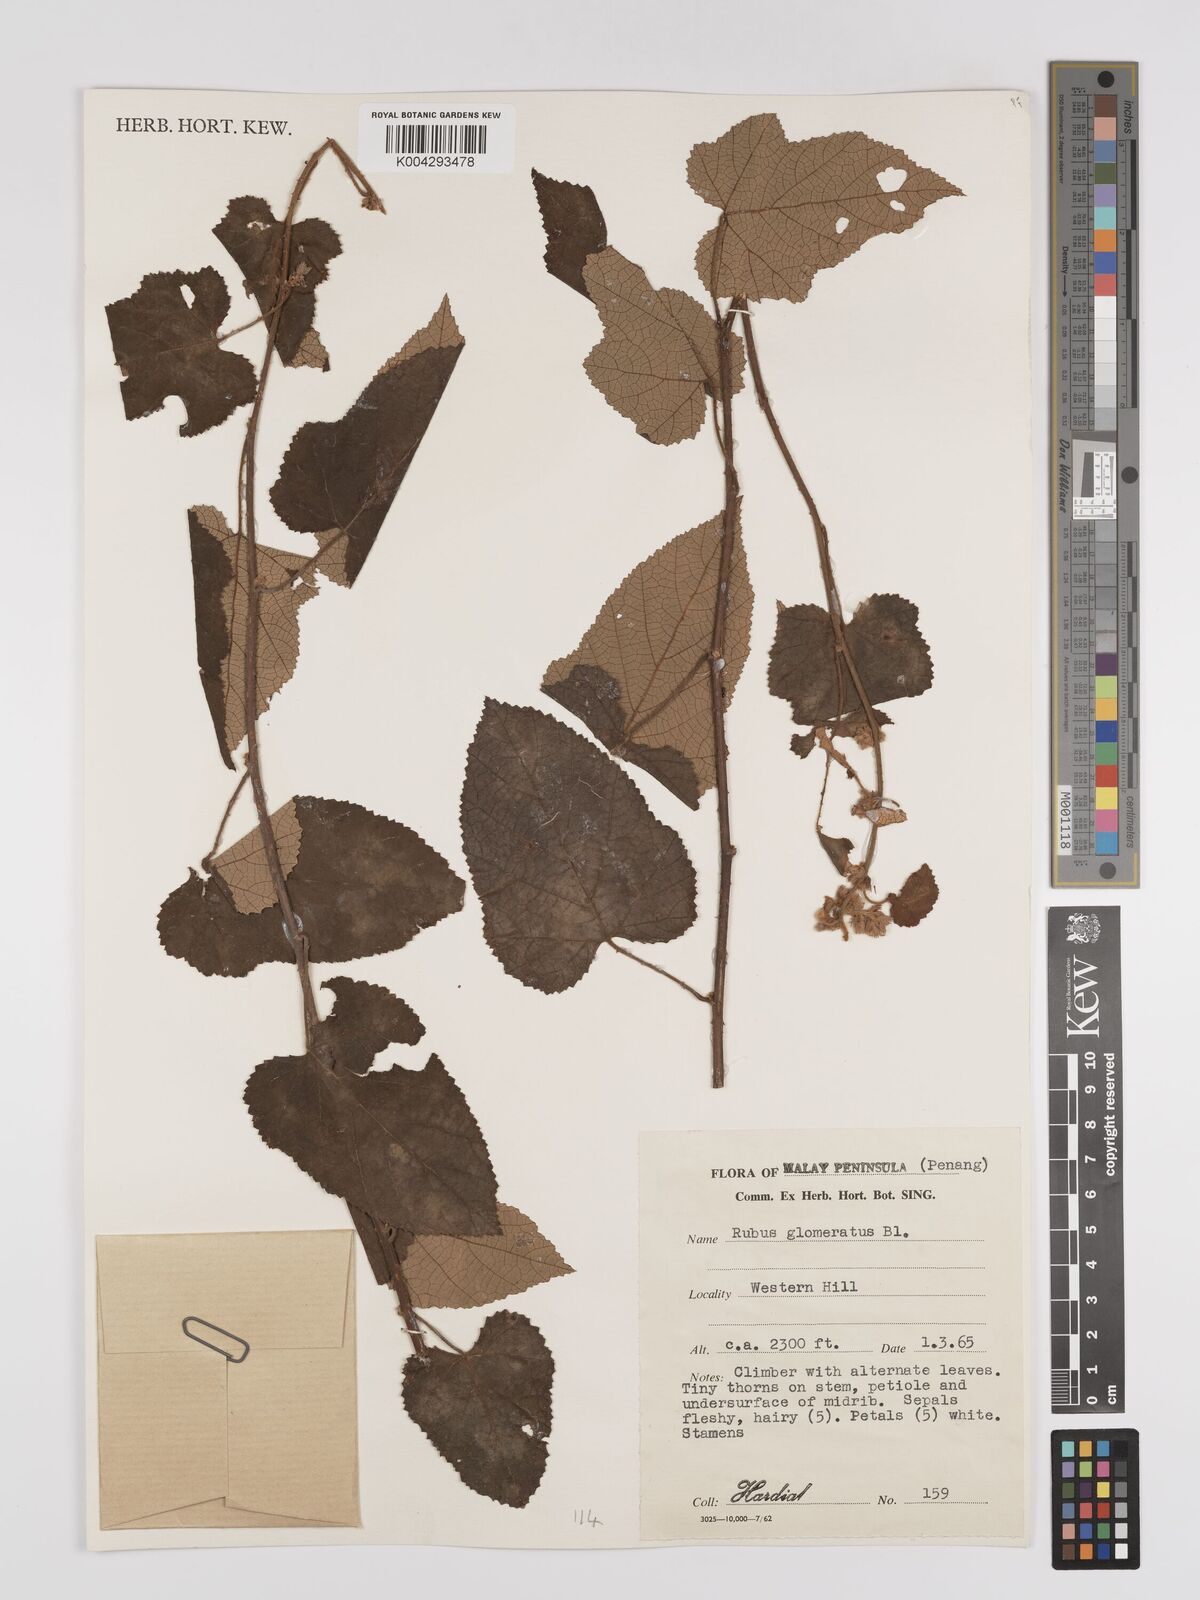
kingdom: Plantae
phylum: Tracheophyta
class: Magnoliopsida
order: Rosales
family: Rosaceae
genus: Rubus
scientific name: Rubus
